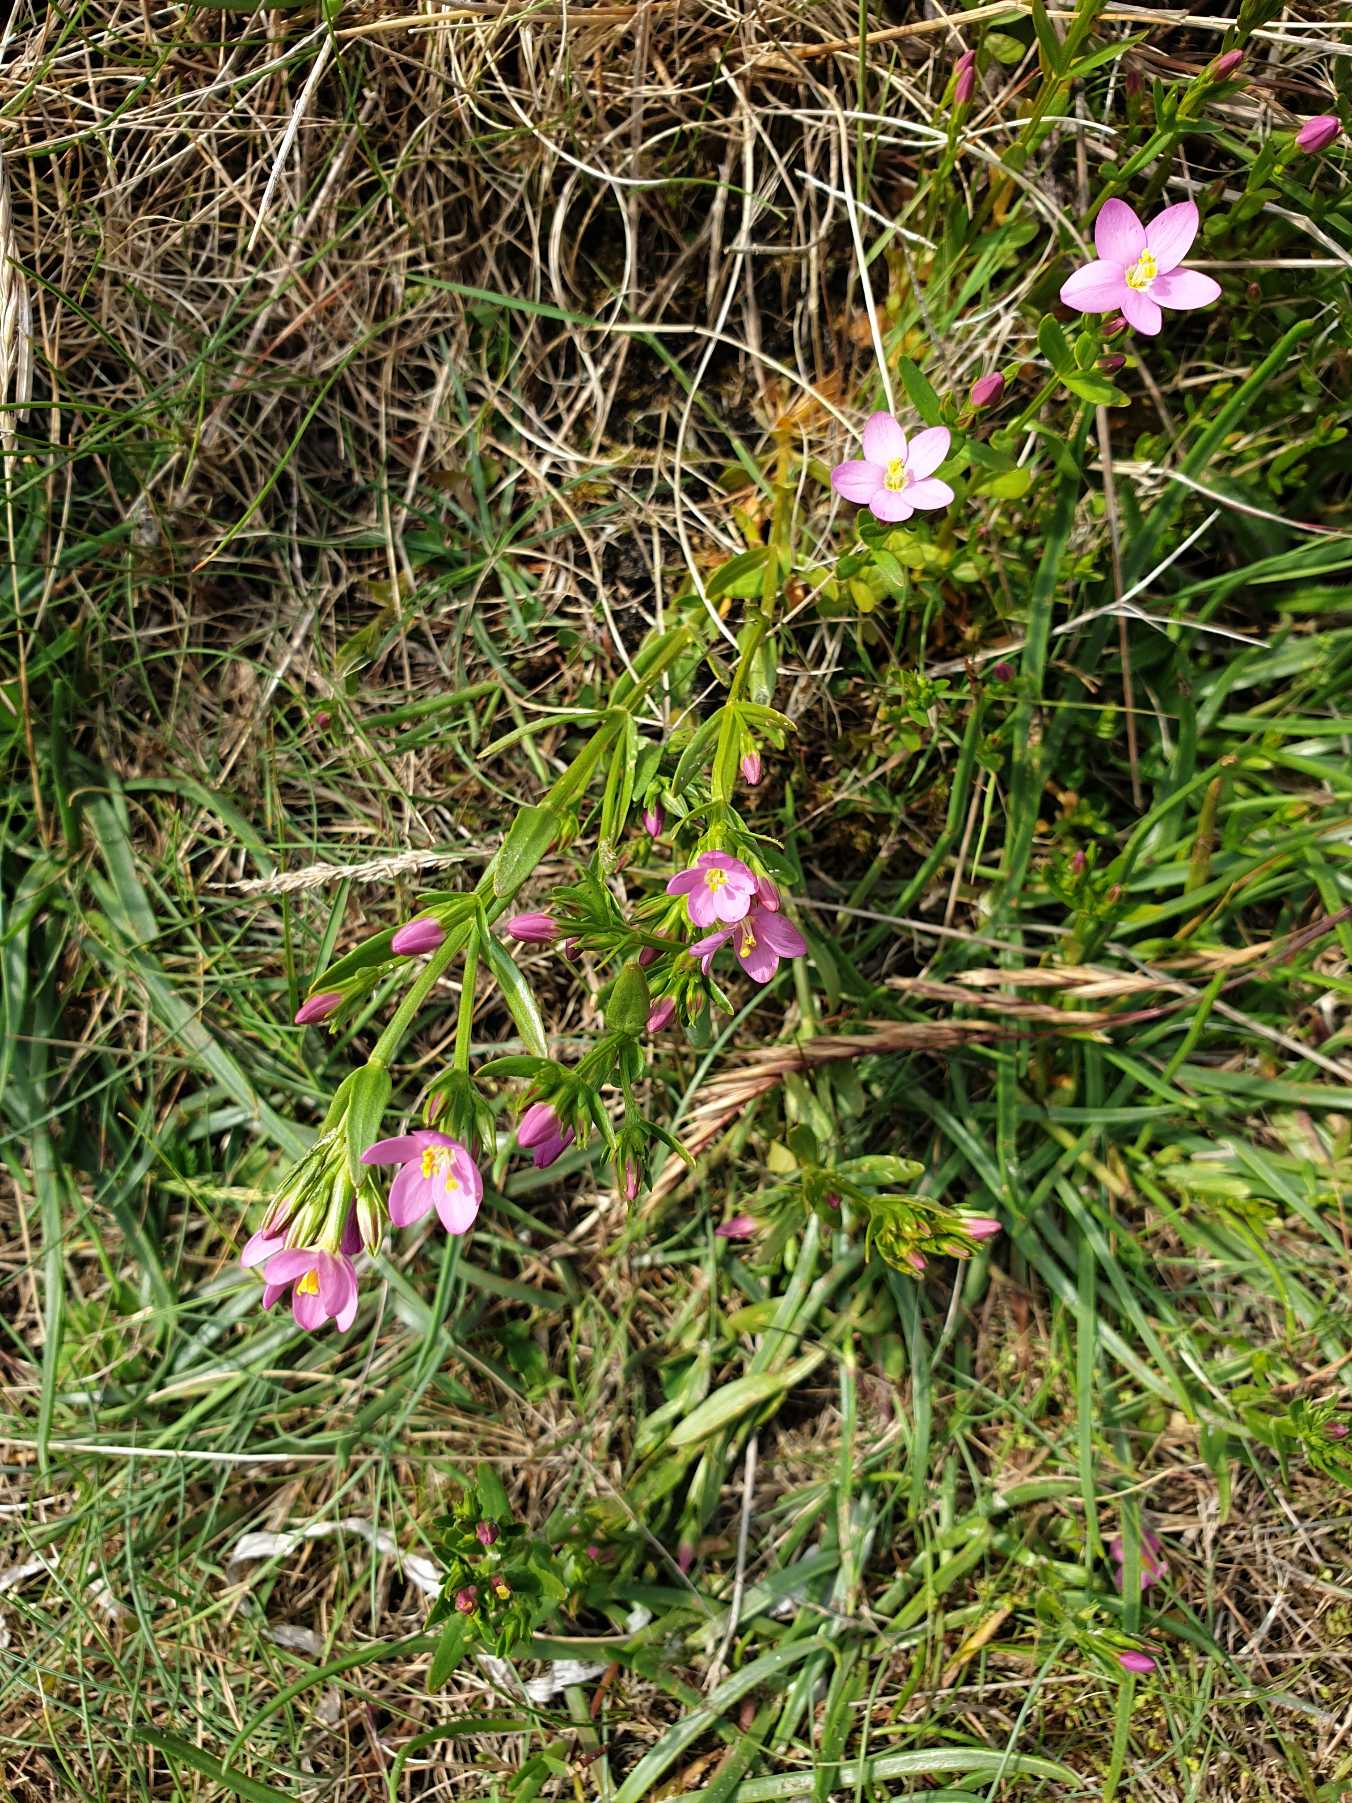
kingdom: Plantae
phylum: Tracheophyta
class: Magnoliopsida
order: Gentianales
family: Gentianaceae
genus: Centaurium
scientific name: Centaurium littorale
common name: Strand-tusindgylden
